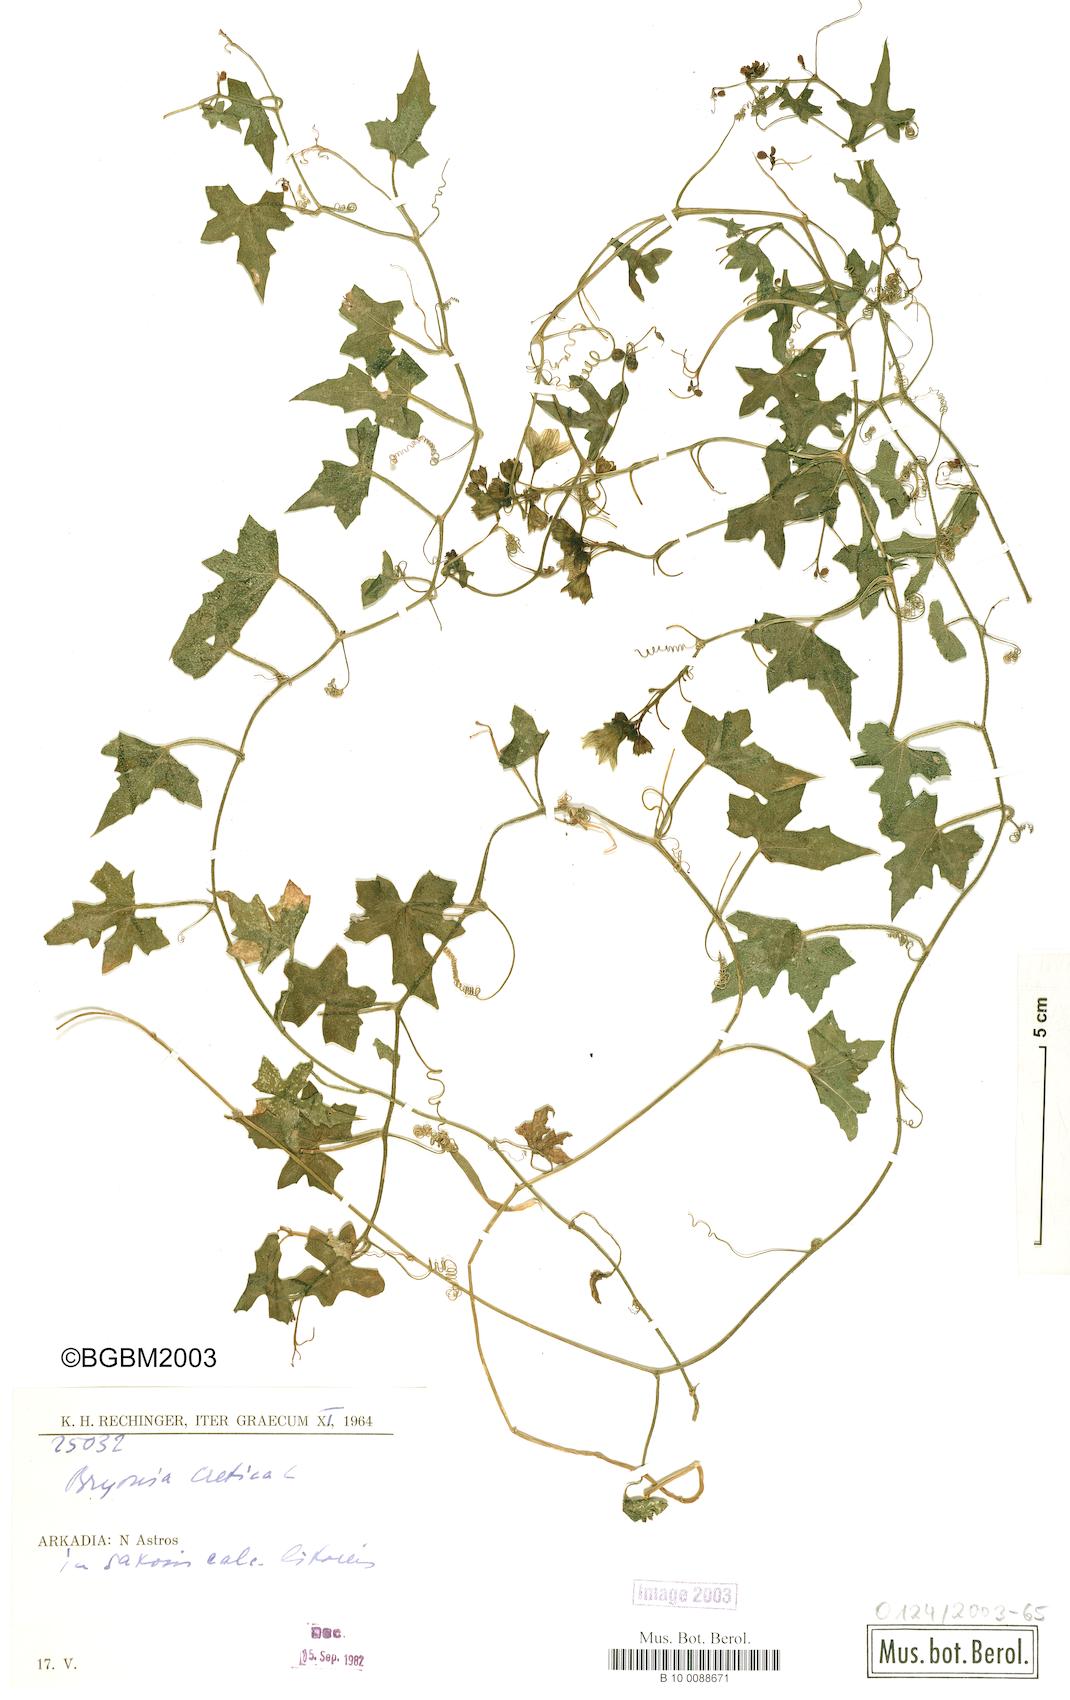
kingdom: Plantae
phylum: Tracheophyta
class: Magnoliopsida
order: Cucurbitales
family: Cucurbitaceae
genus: Bryonia
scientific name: Bryonia cretica
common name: Cretan bryony
